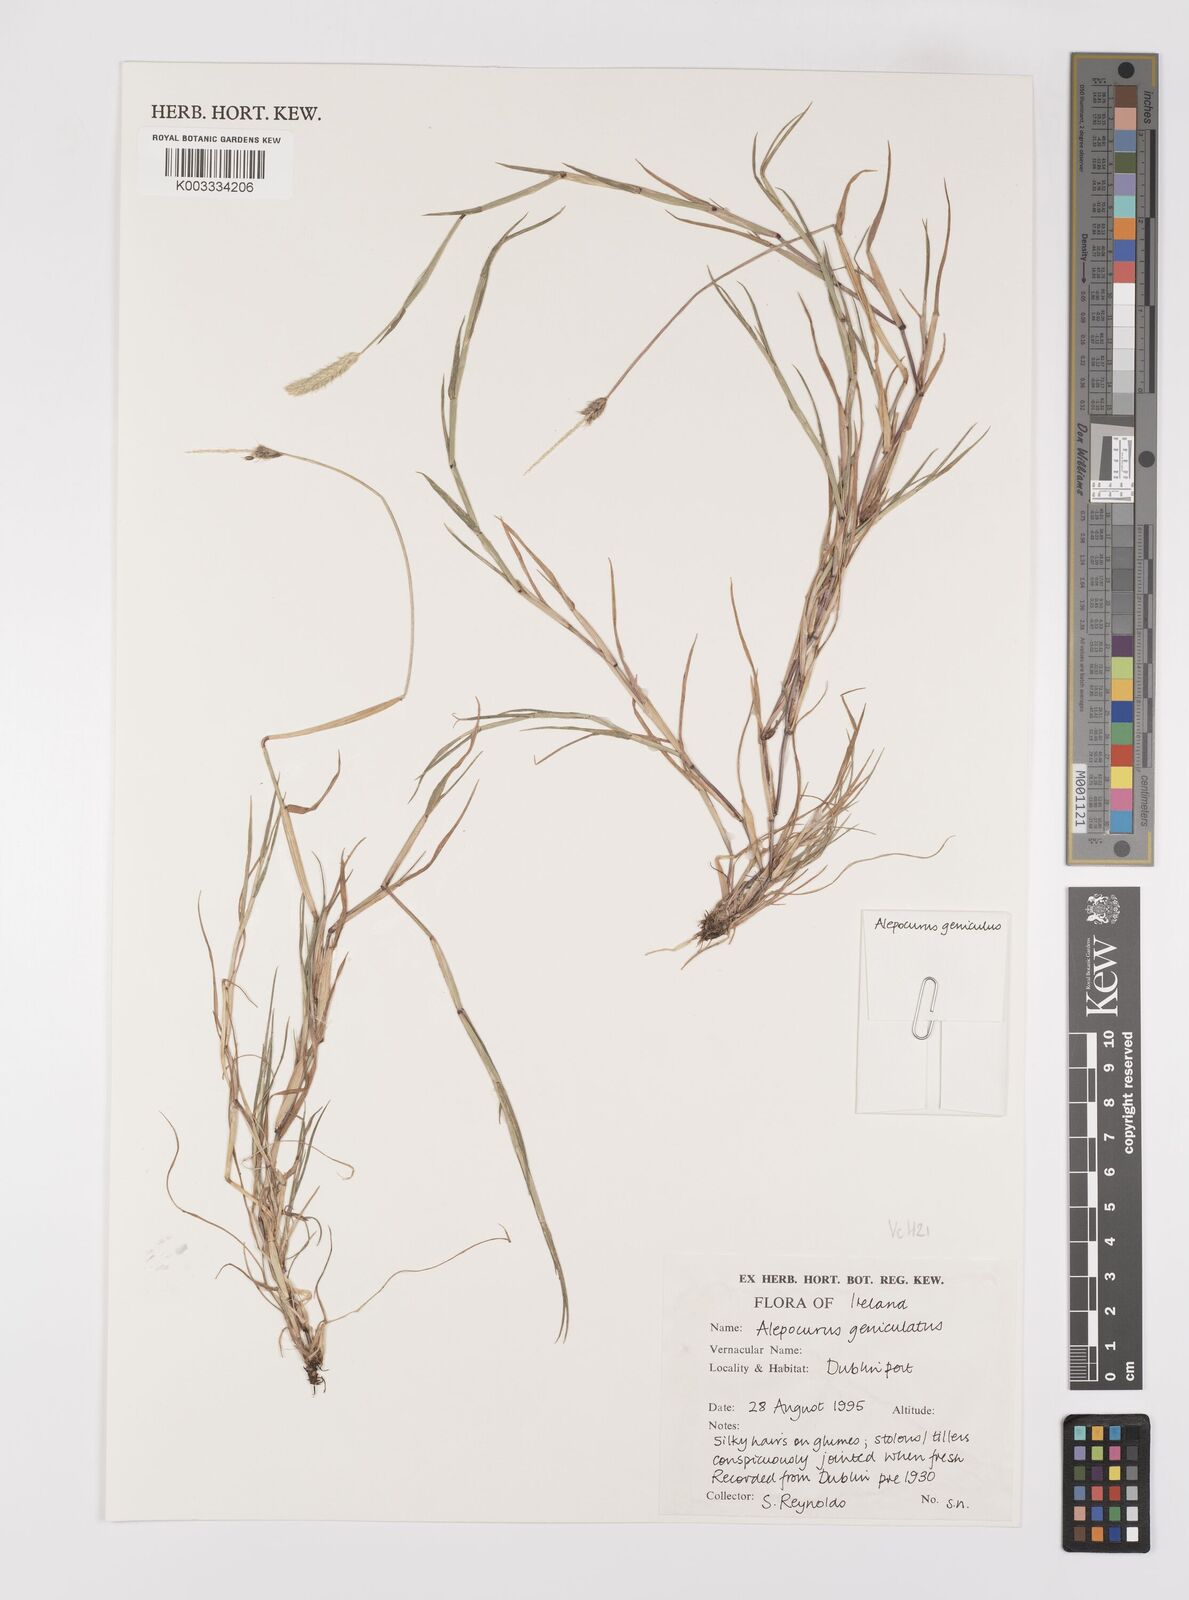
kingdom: Plantae
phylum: Tracheophyta
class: Liliopsida
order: Poales
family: Poaceae
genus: Alopecurus
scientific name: Alopecurus geniculatus
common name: Water foxtail
